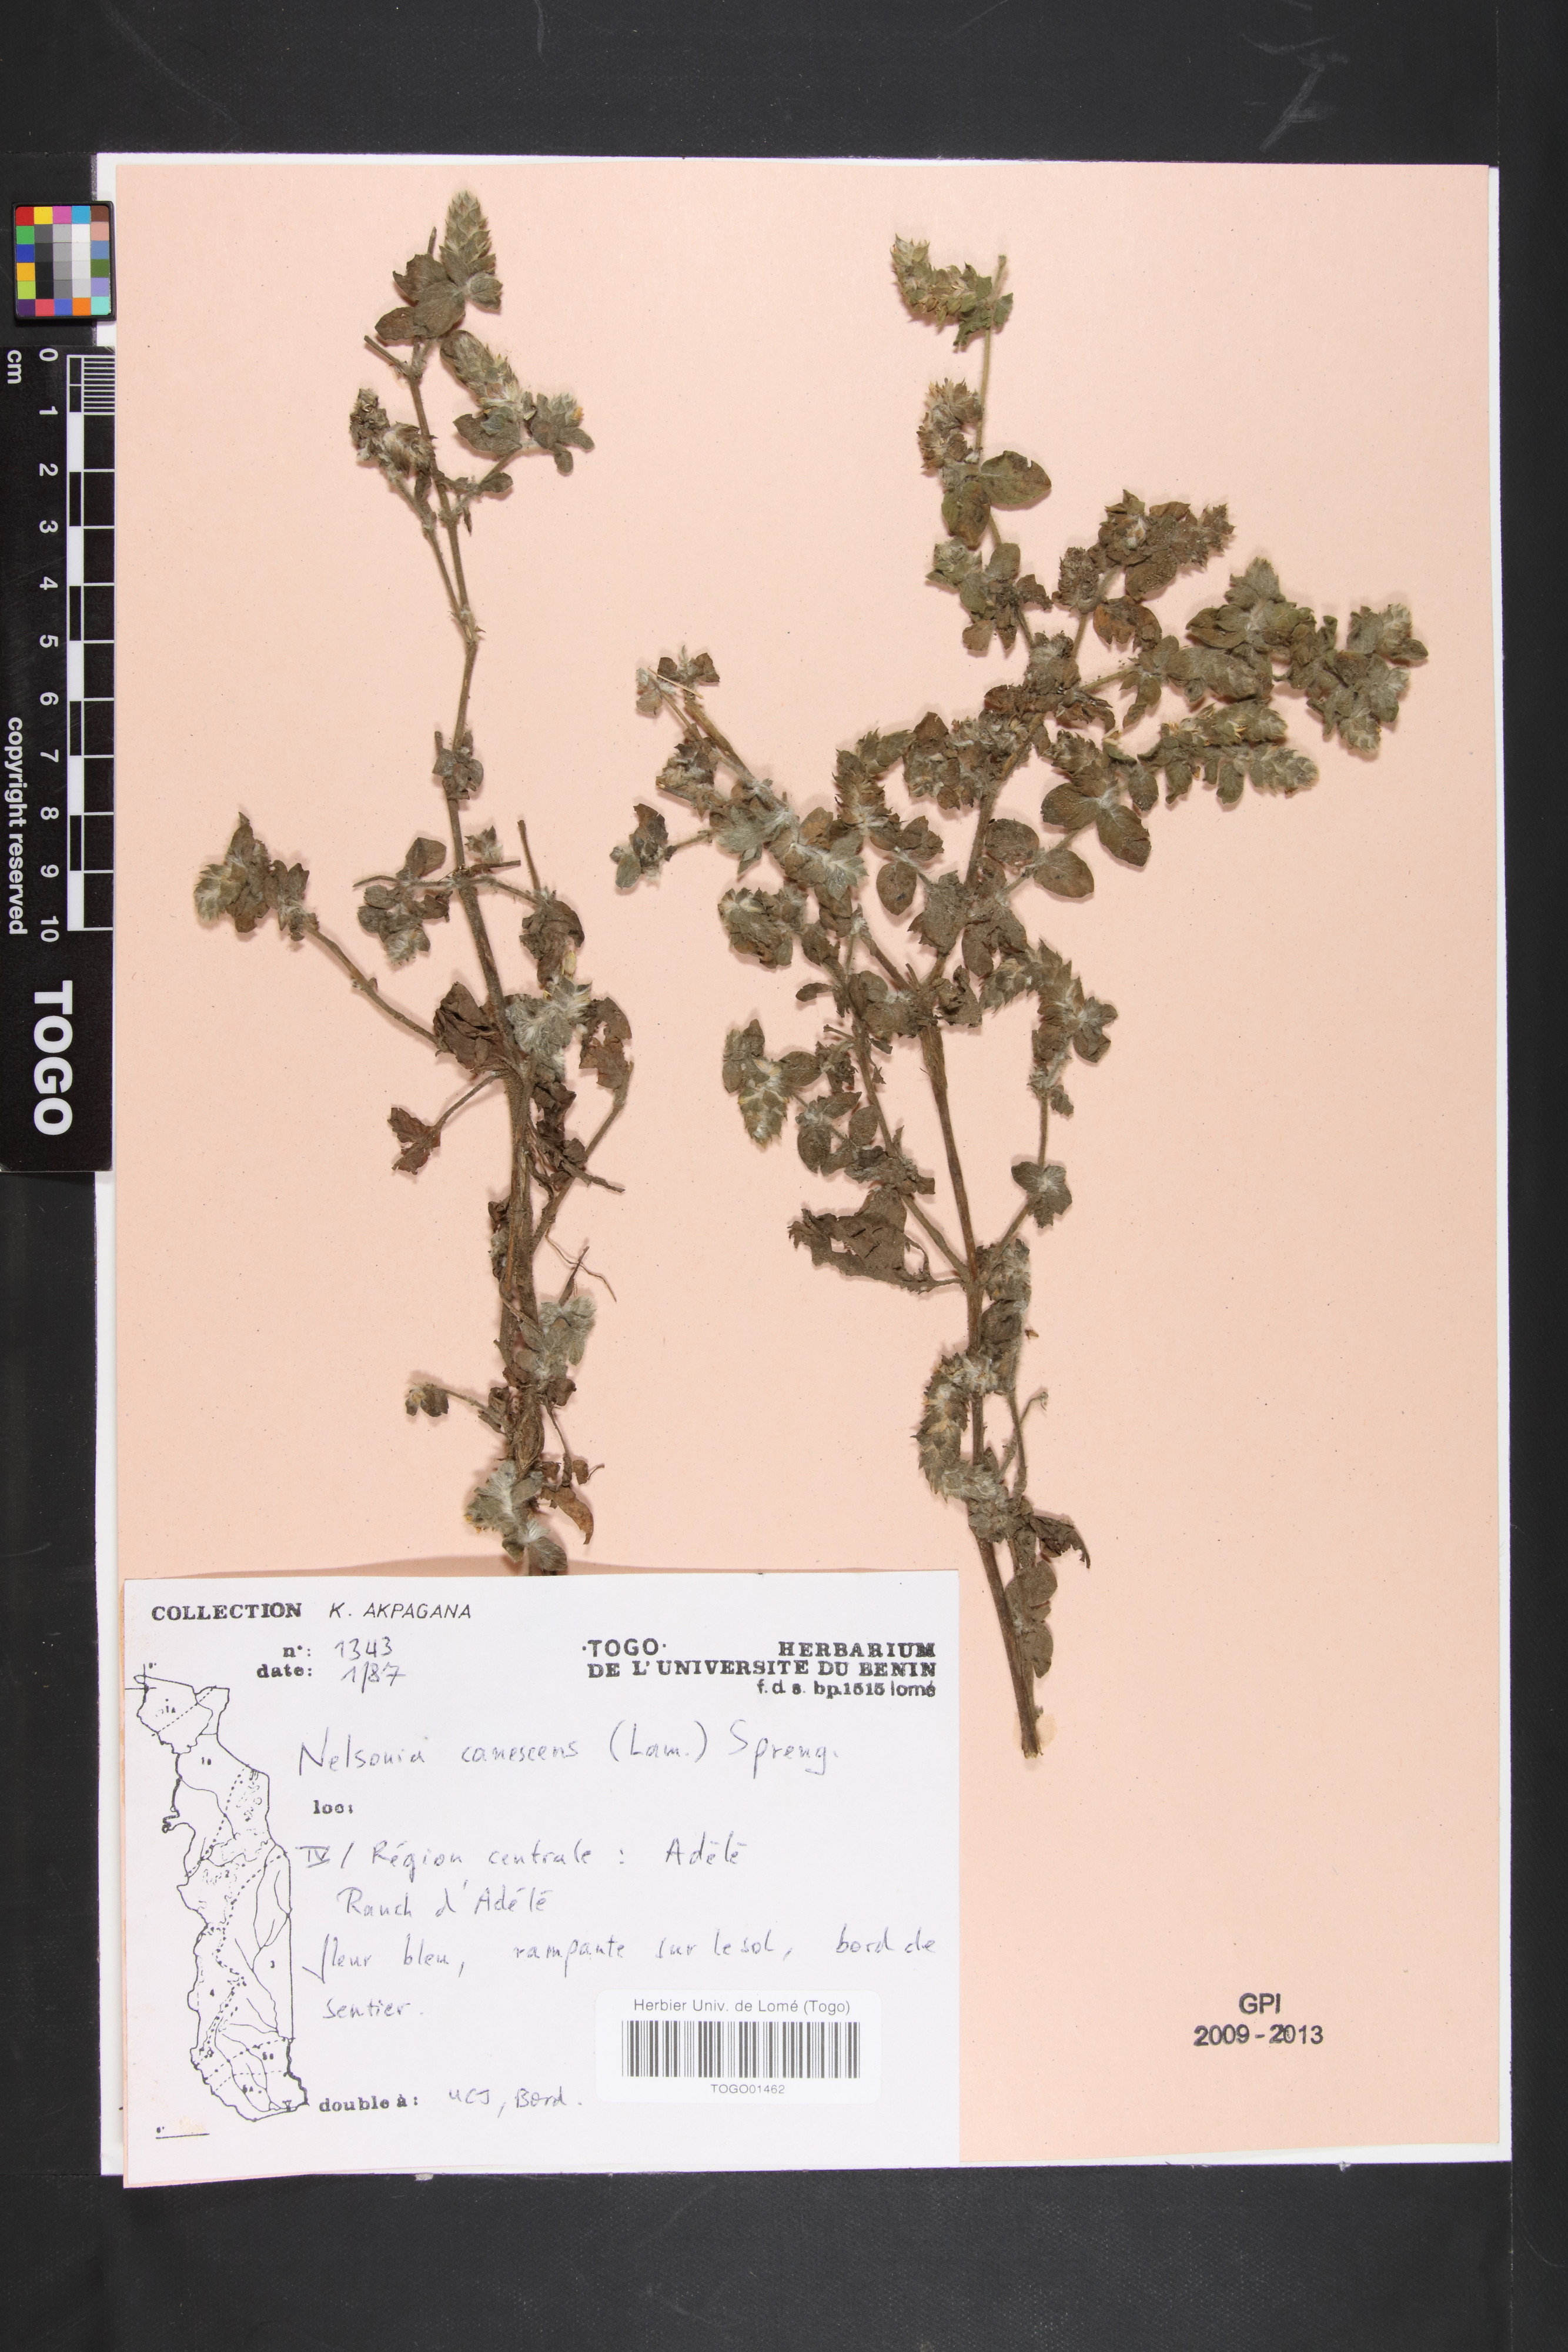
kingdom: Plantae
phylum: Tracheophyta
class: Magnoliopsida
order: Lamiales
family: Acanthaceae
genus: Nelsonia
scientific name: Nelsonia canescens
